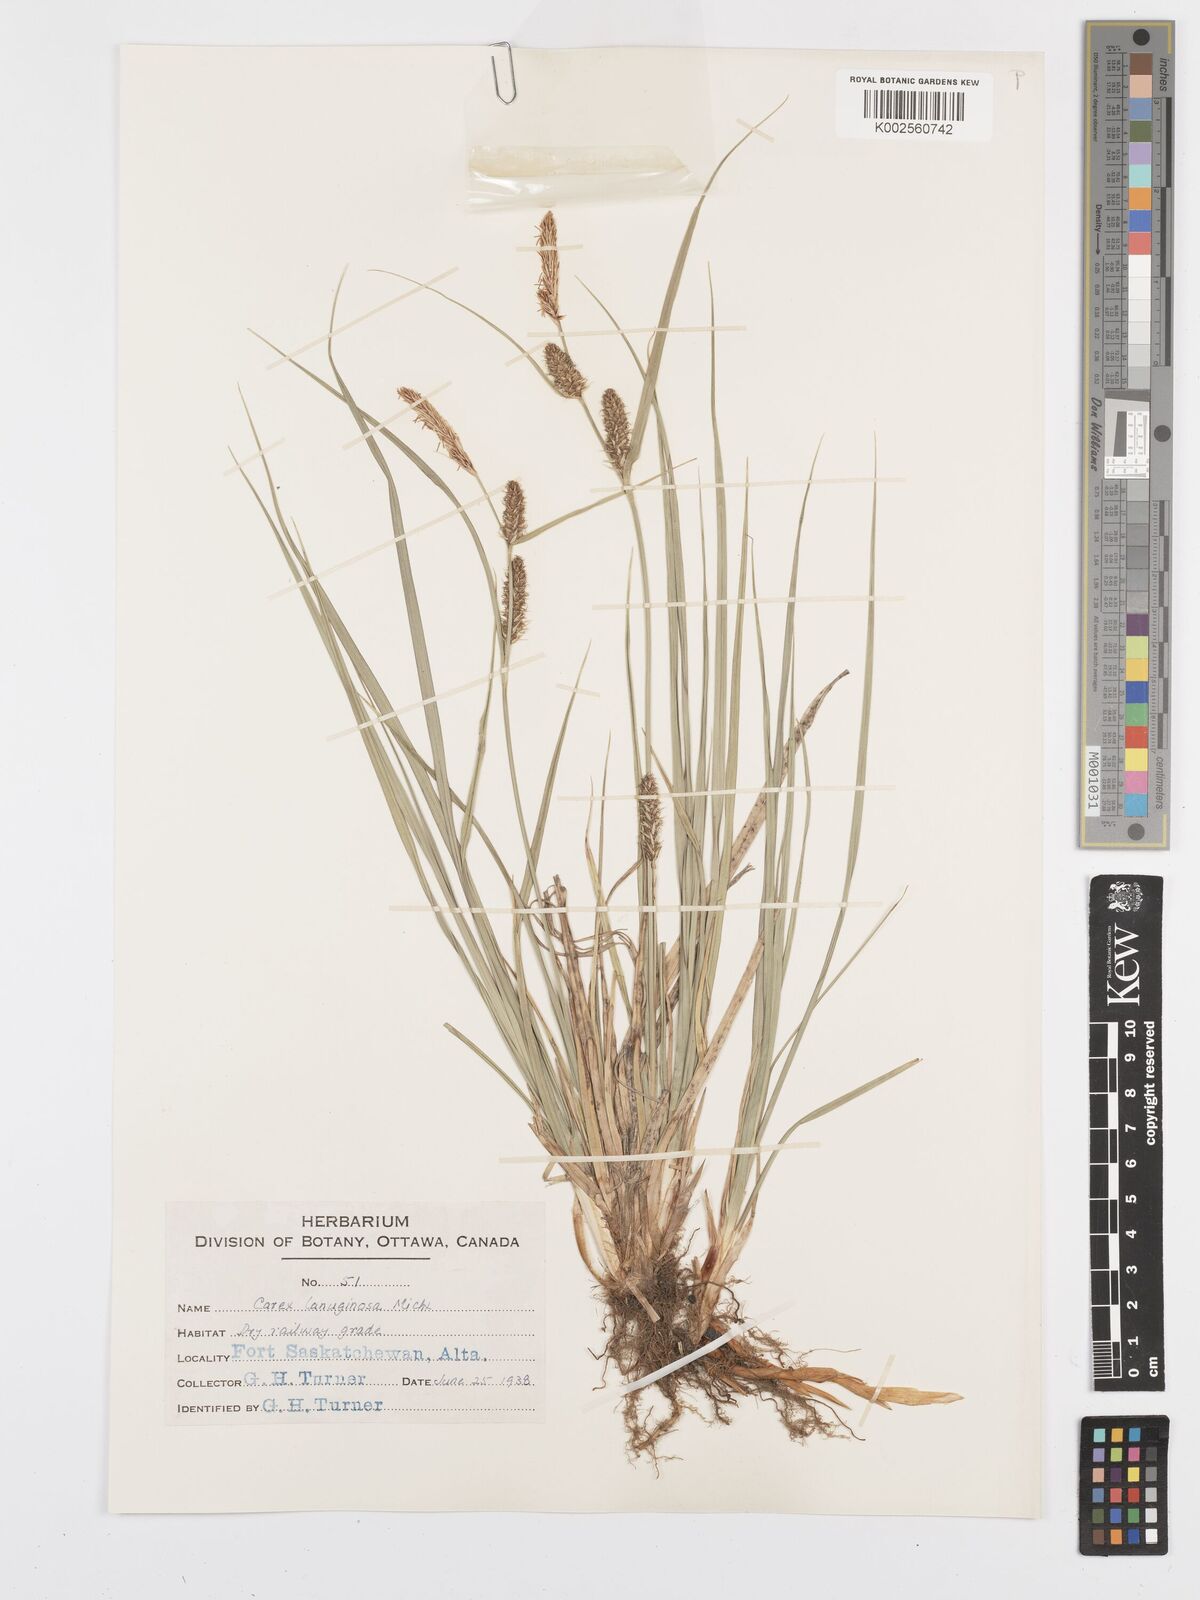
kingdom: Plantae
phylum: Tracheophyta
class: Liliopsida
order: Poales
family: Cyperaceae
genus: Carex
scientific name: Carex lasiocarpa
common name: Slender sedge
